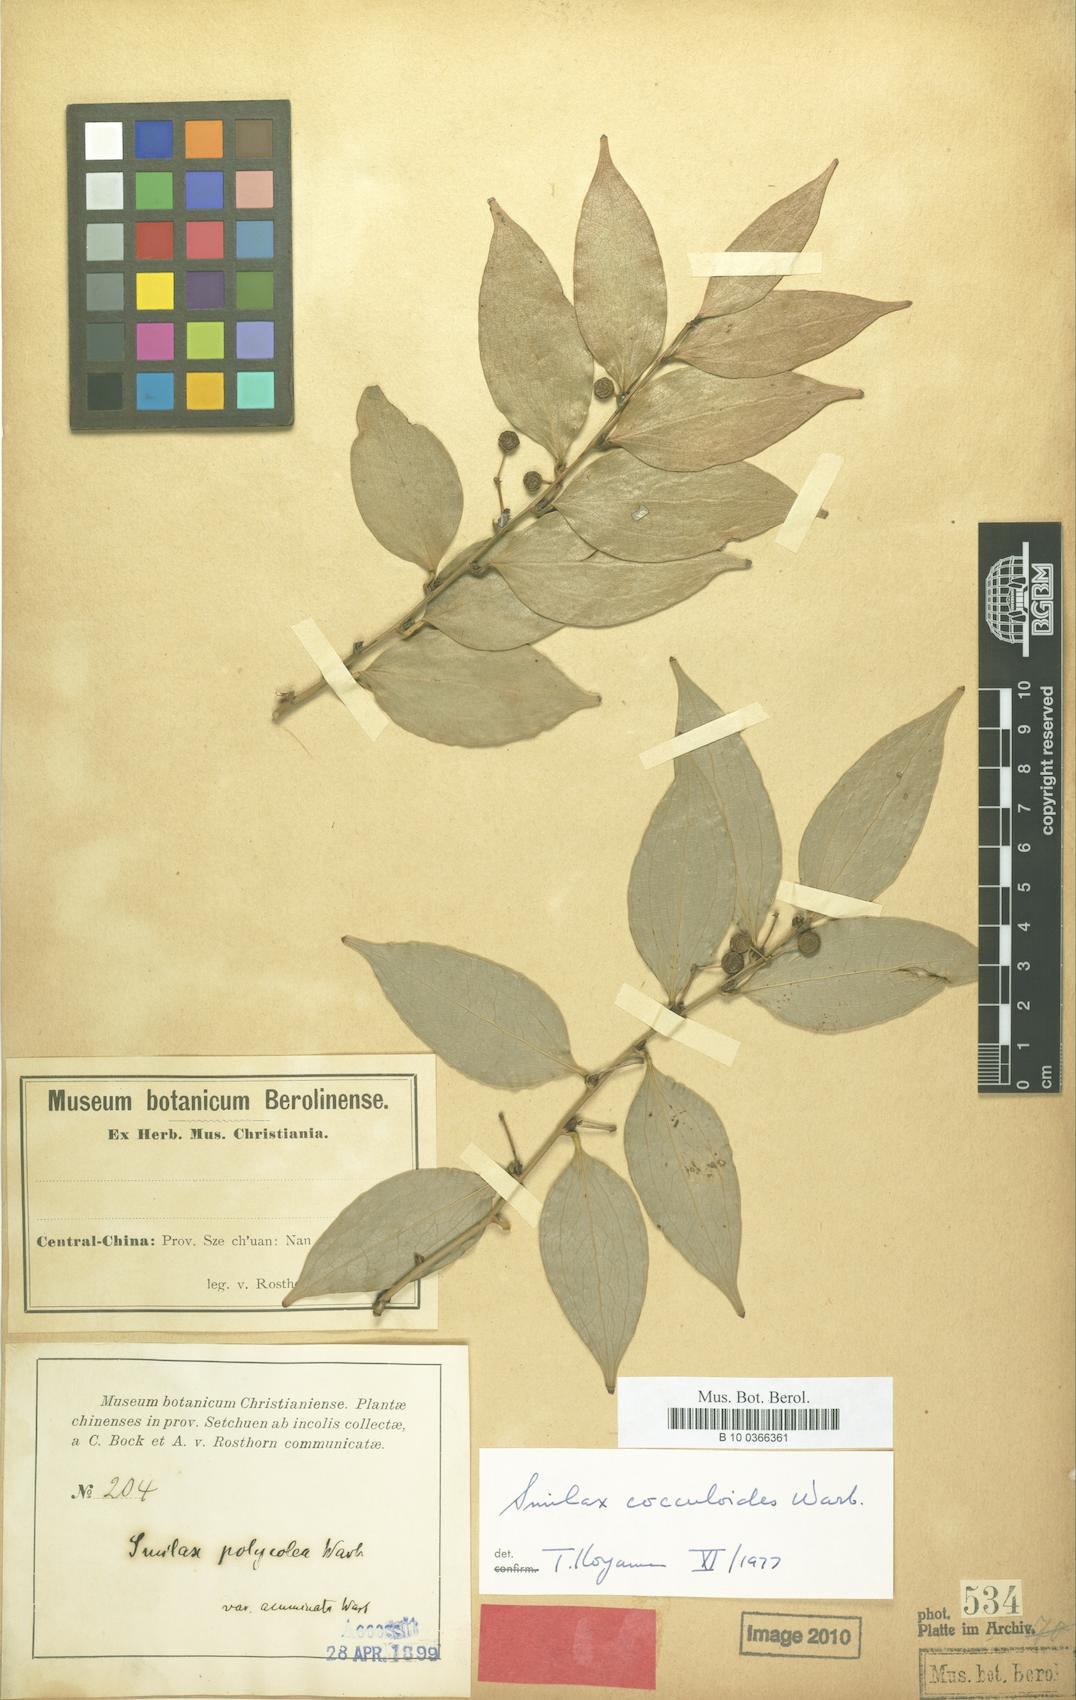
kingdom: Plantae
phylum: Tracheophyta
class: Liliopsida
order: Liliales
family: Smilacaceae
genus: Smilax
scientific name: Smilax cocculoides
